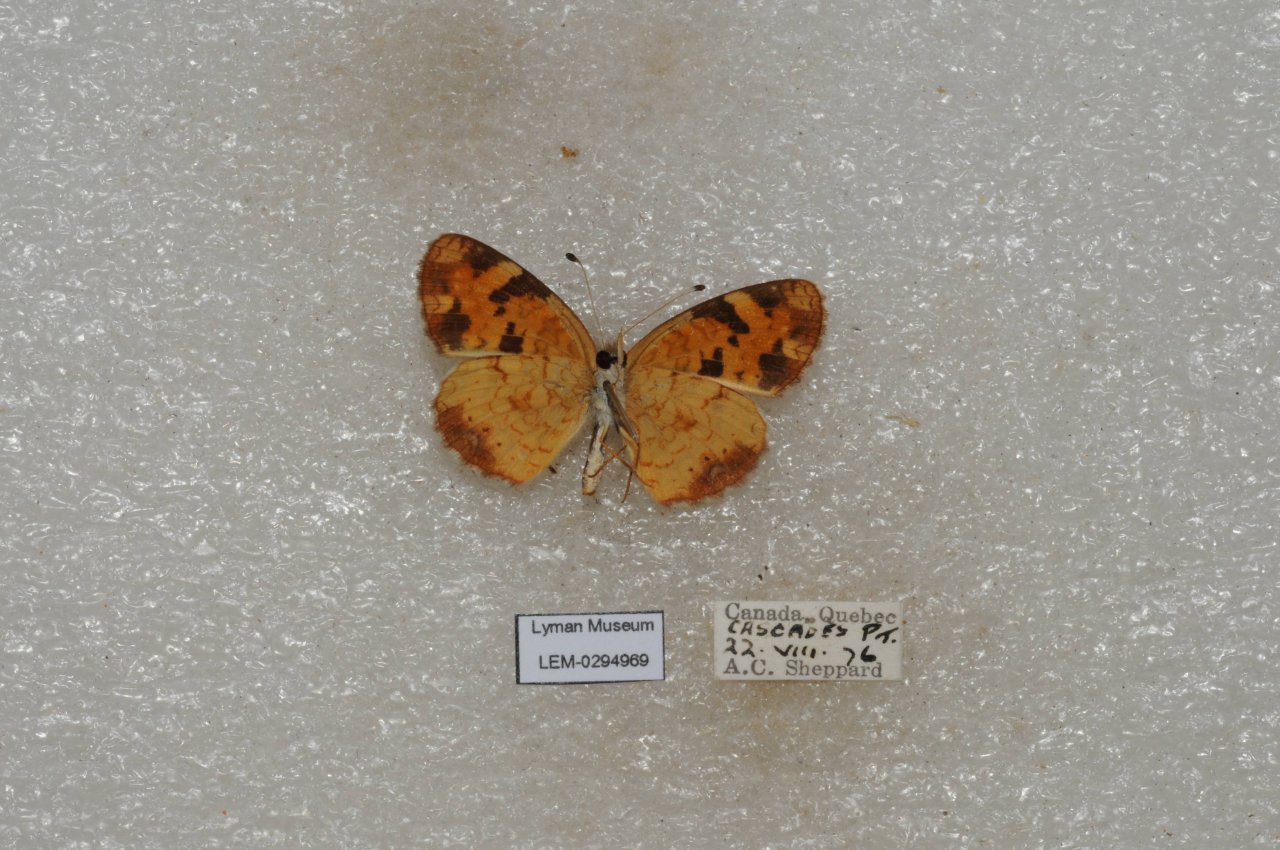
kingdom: Animalia
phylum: Arthropoda
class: Insecta
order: Lepidoptera
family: Nymphalidae
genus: Phyciodes
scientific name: Phyciodes tharos
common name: Northern Crescent
